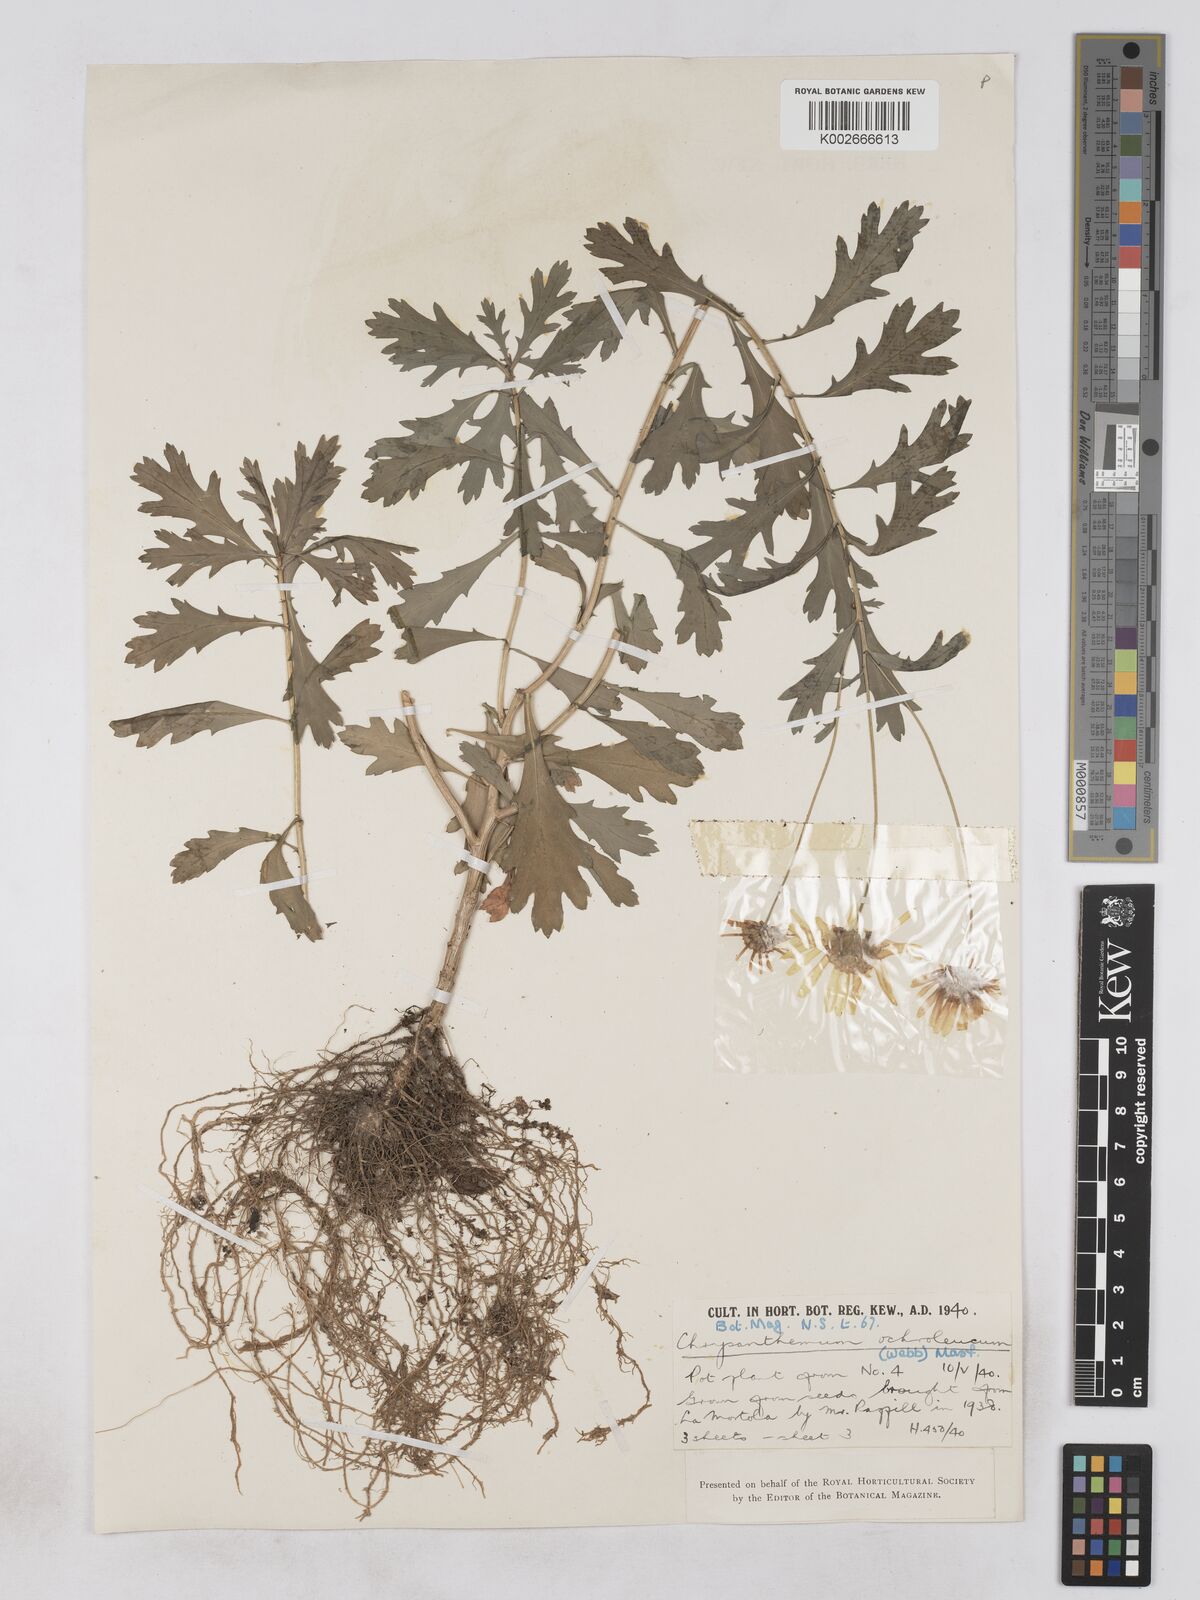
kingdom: Plantae
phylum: Tracheophyta
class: Magnoliopsida
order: Asterales
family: Asteraceae
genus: Argyranthemum
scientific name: Argyranthemum maderense
